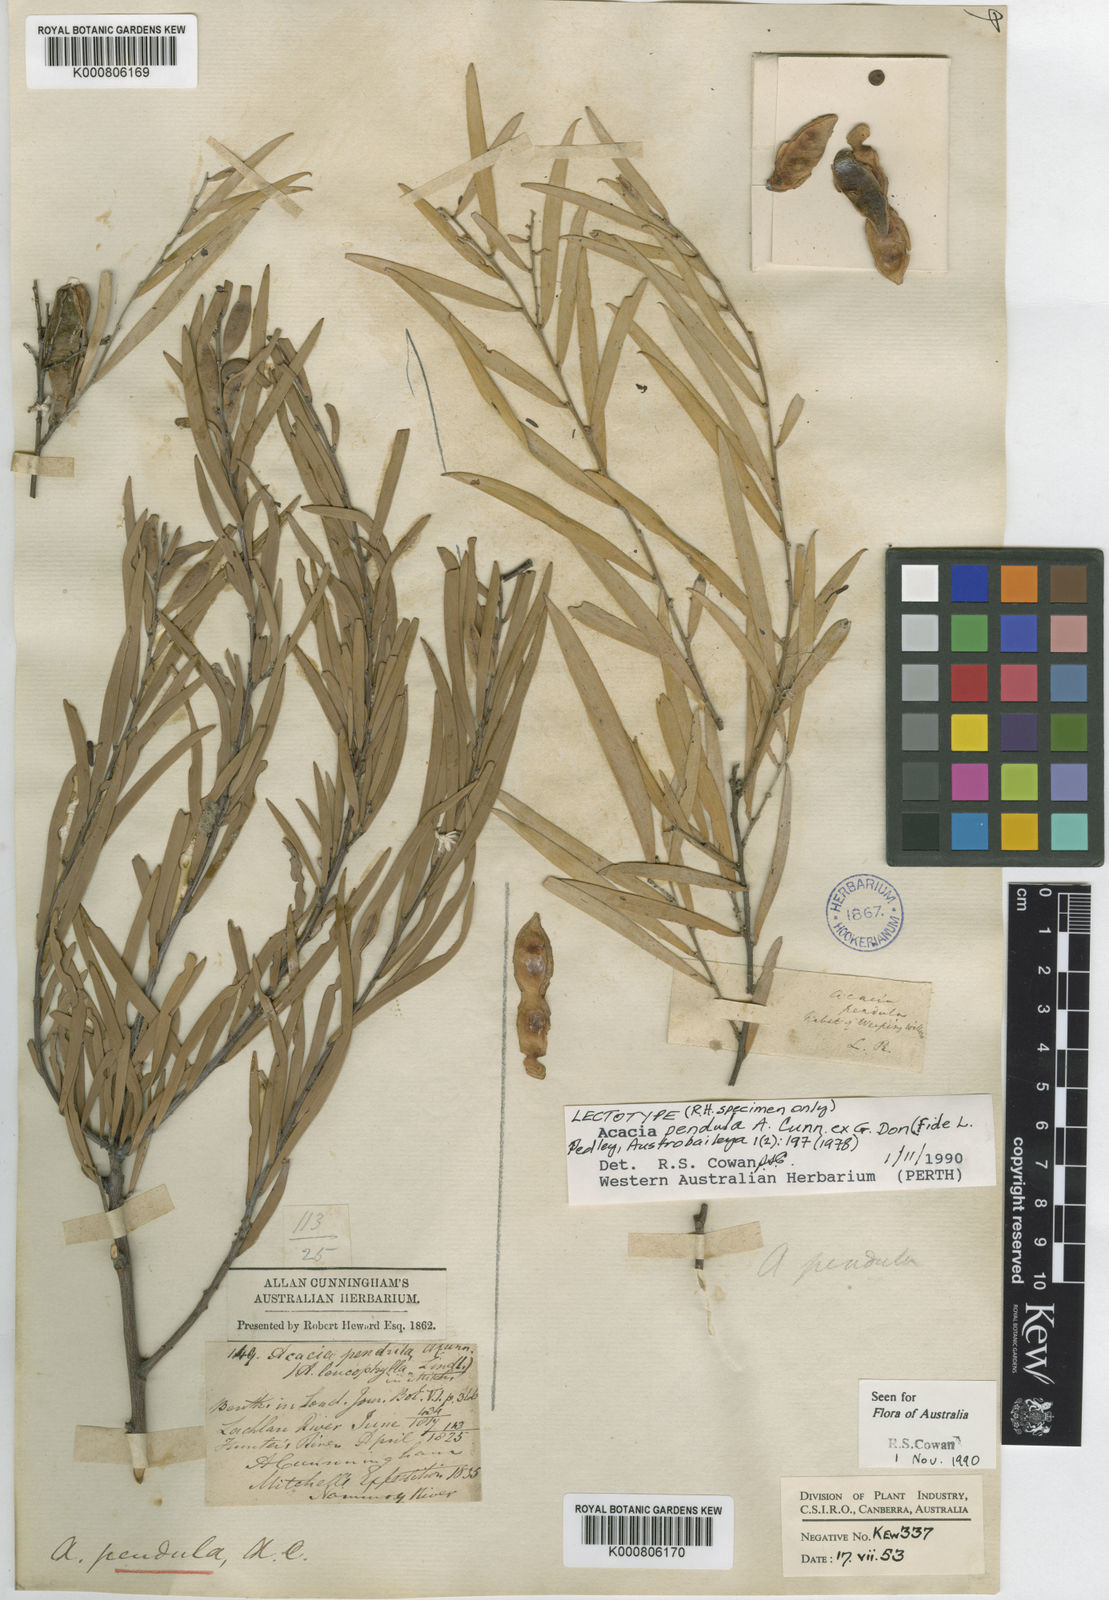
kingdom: Plantae
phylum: Tracheophyta
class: Magnoliopsida
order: Fabales
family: Fabaceae
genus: Acacia
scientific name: Acacia pendula
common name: Weeping myall
